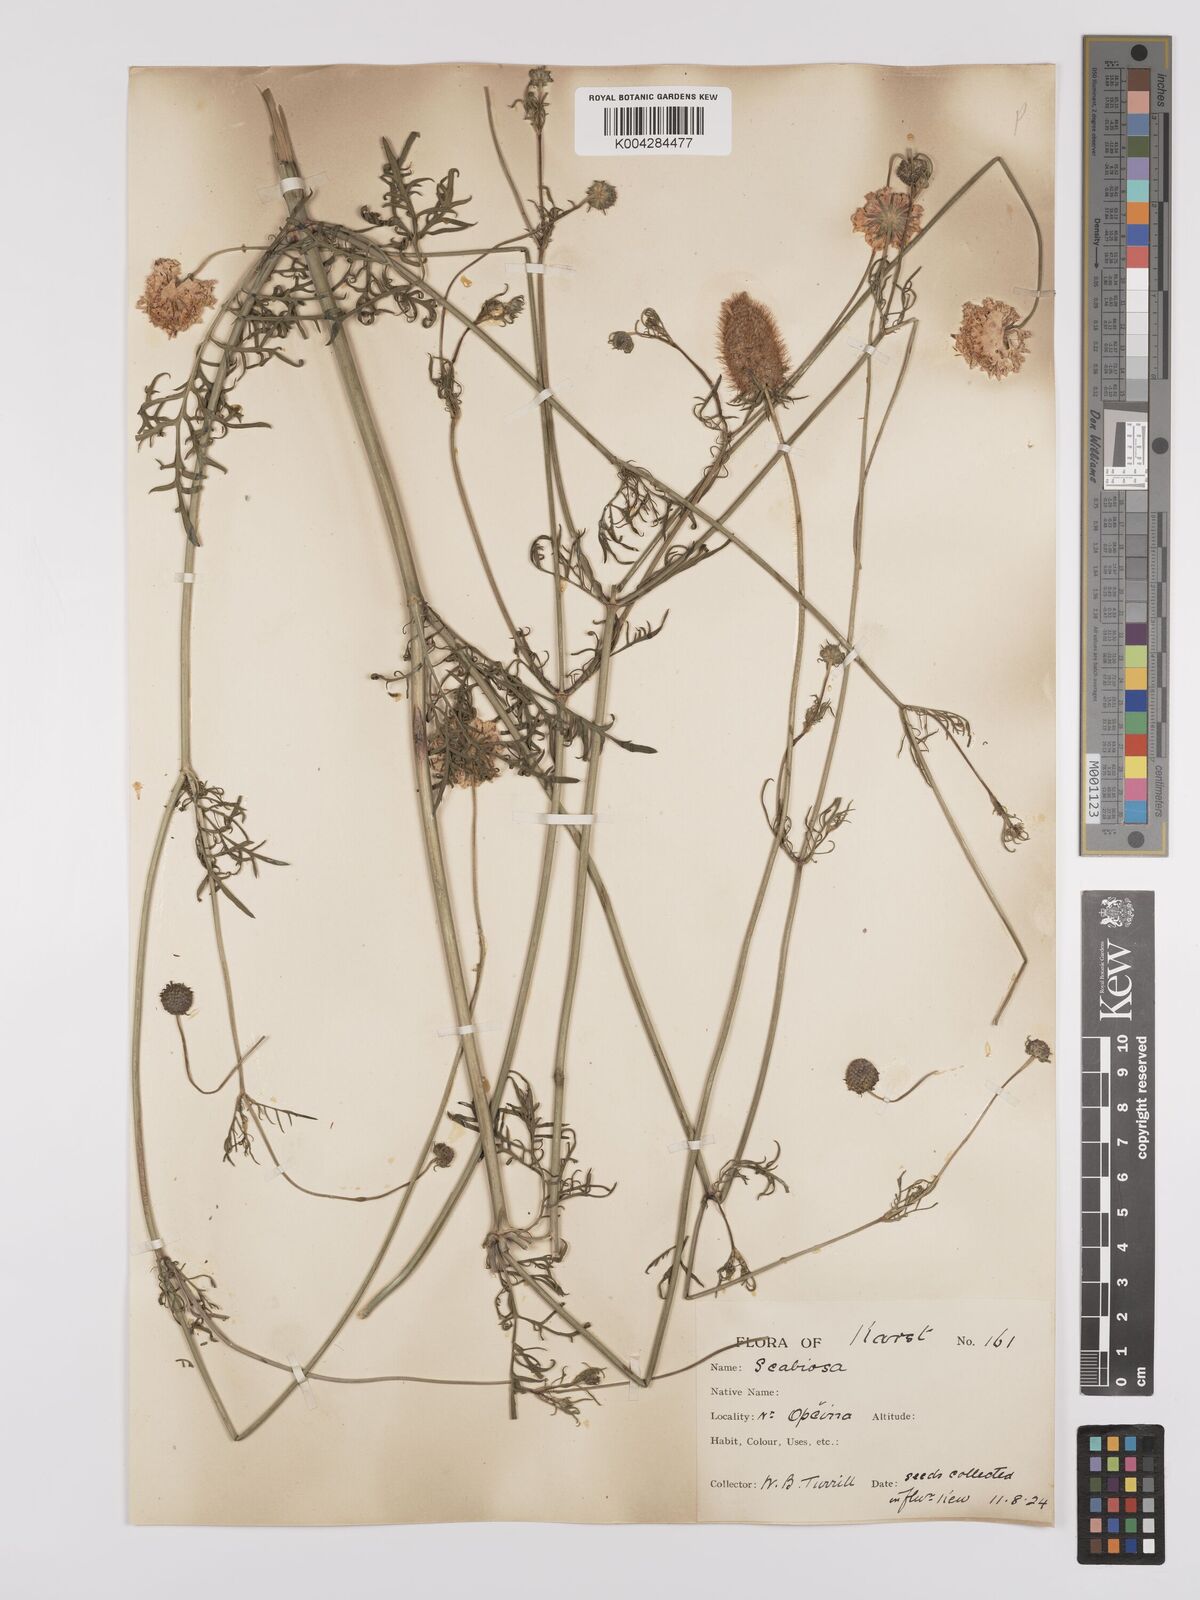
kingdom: Plantae
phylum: Tracheophyta
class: Magnoliopsida
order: Dipsacales
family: Caprifoliaceae
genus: Sixalix
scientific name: Sixalix maritima
